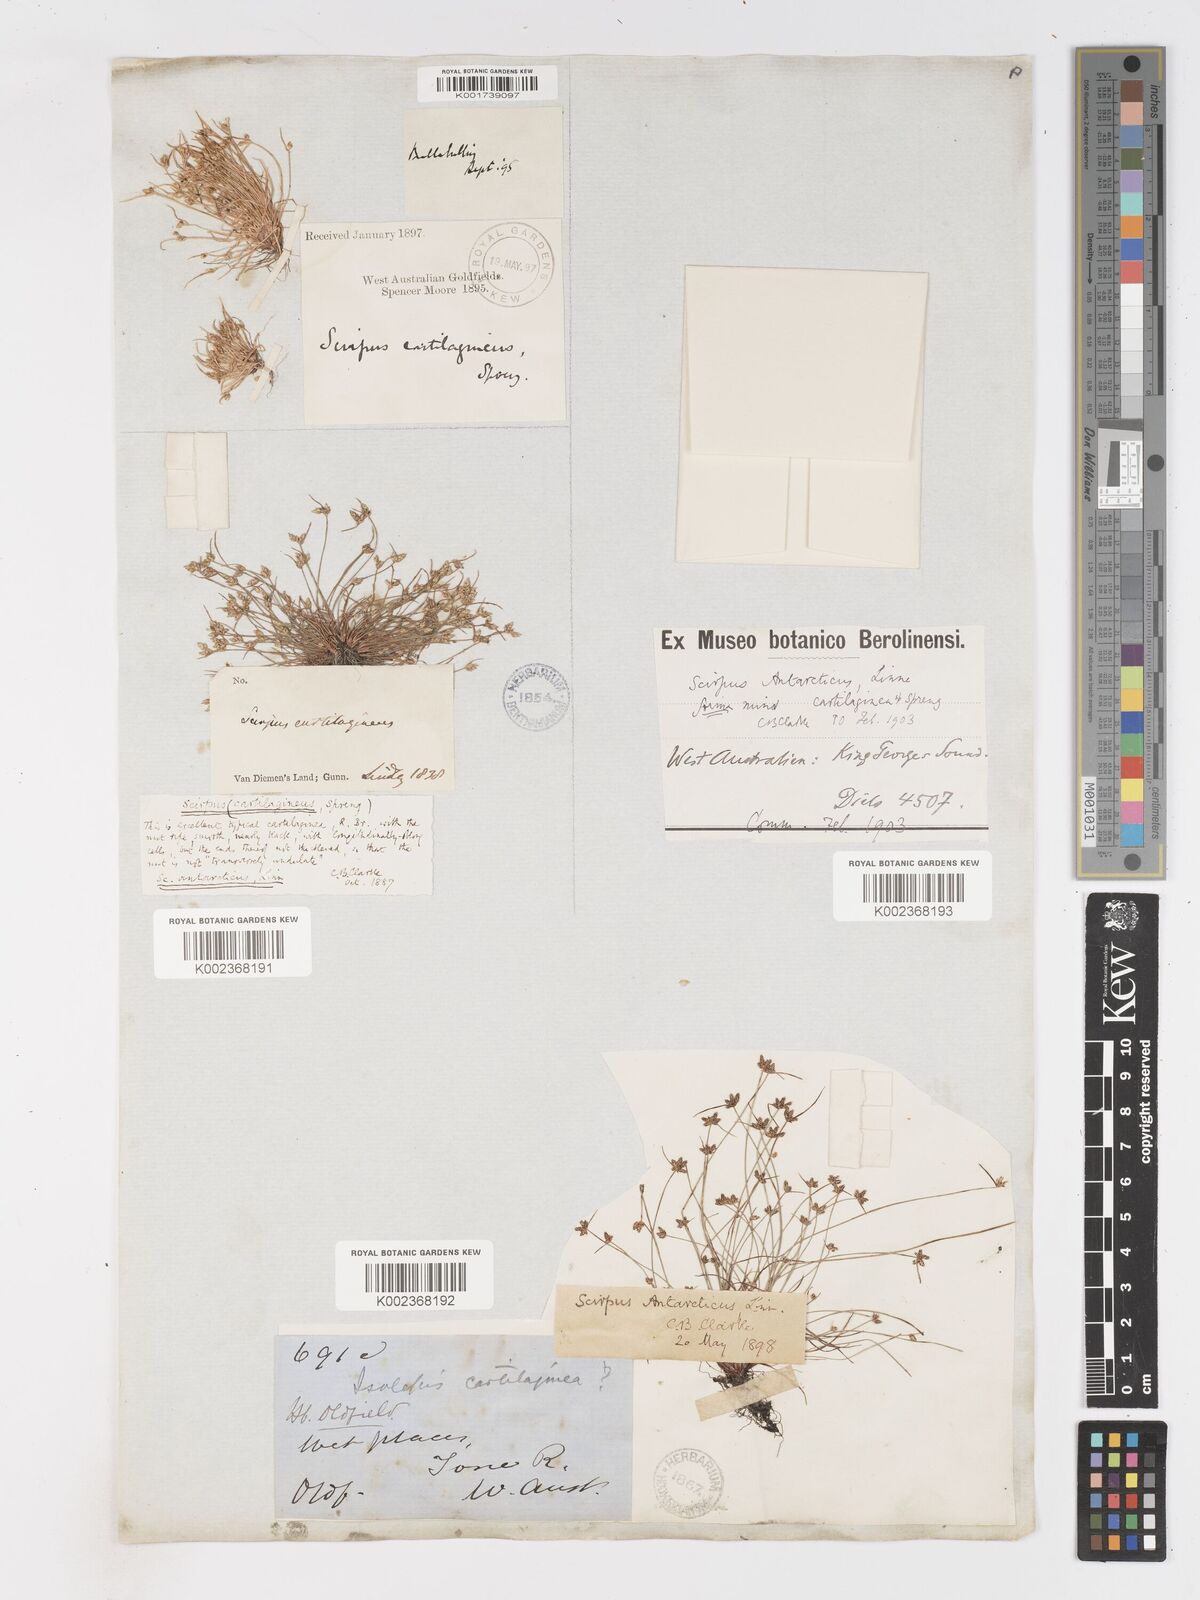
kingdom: Plantae
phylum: Tracheophyta
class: Liliopsida
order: Poales
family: Cyperaceae
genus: Isolepis
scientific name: Isolepis antarctica
